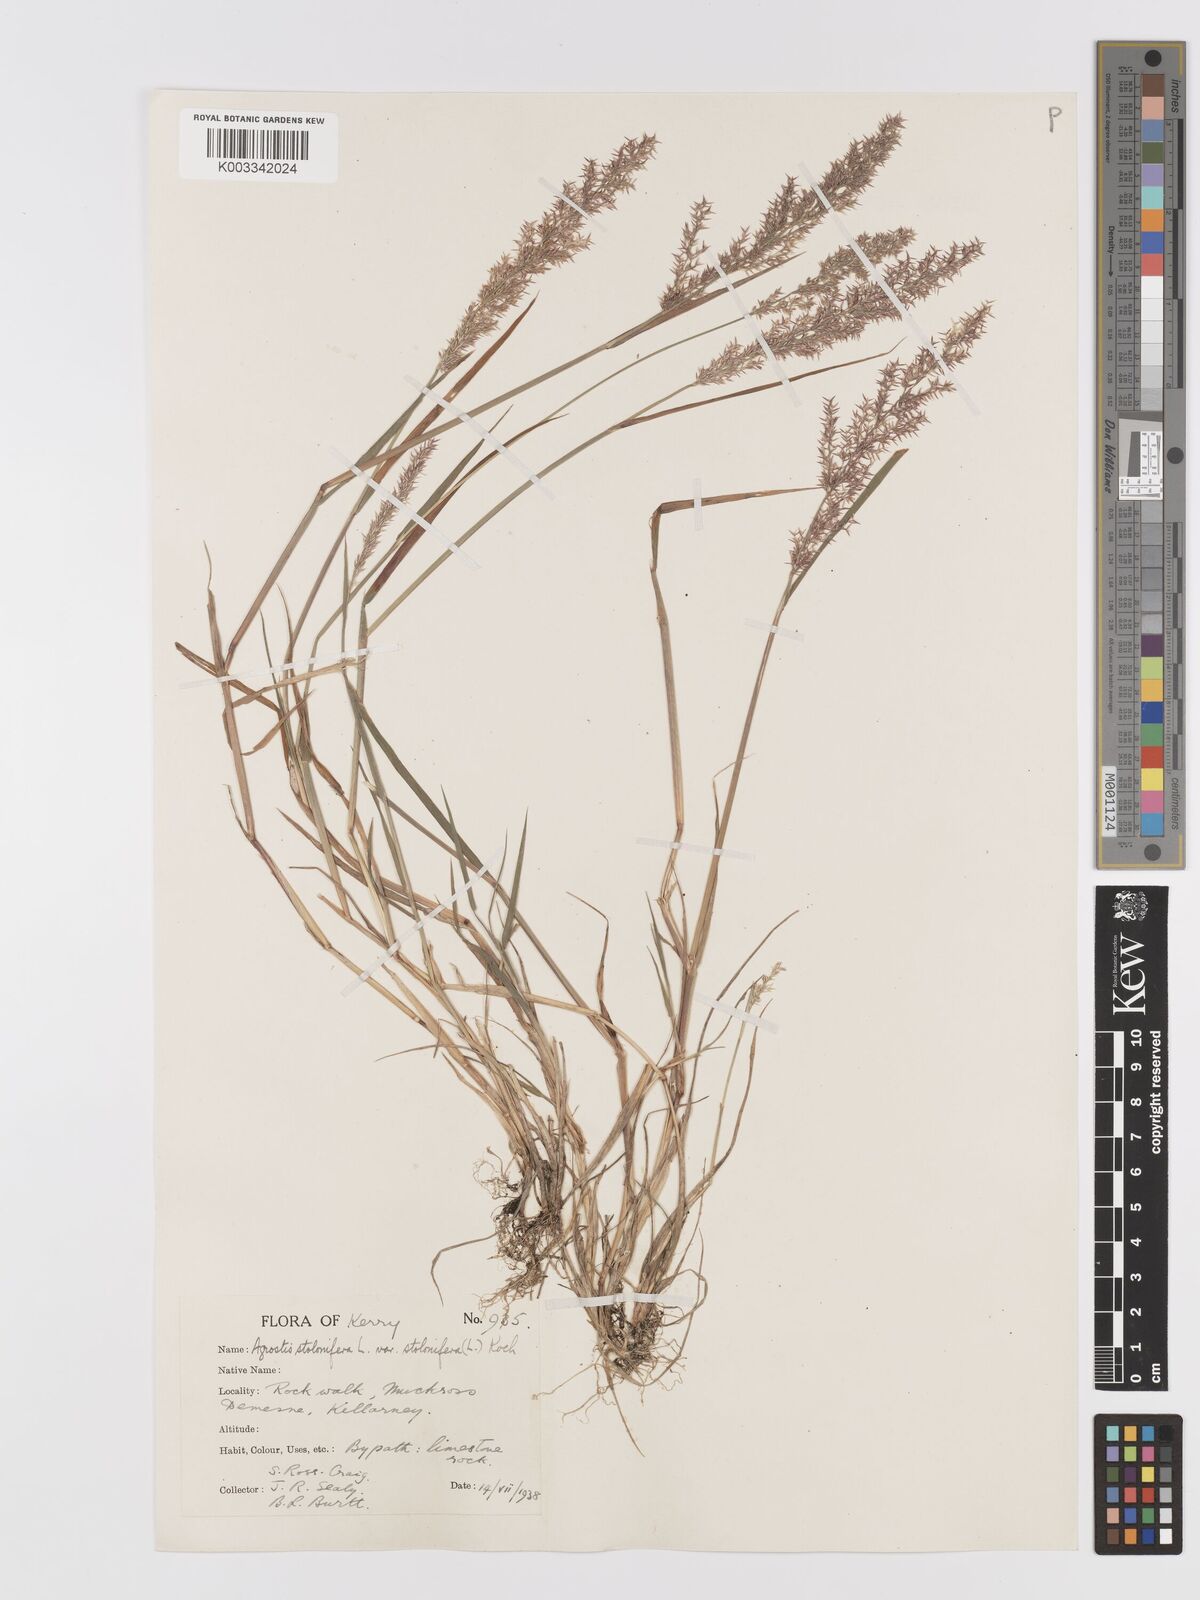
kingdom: Plantae
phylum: Tracheophyta
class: Liliopsida
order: Poales
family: Poaceae
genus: Agrostis
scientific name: Agrostis stolonifera
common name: Creeping bentgrass
